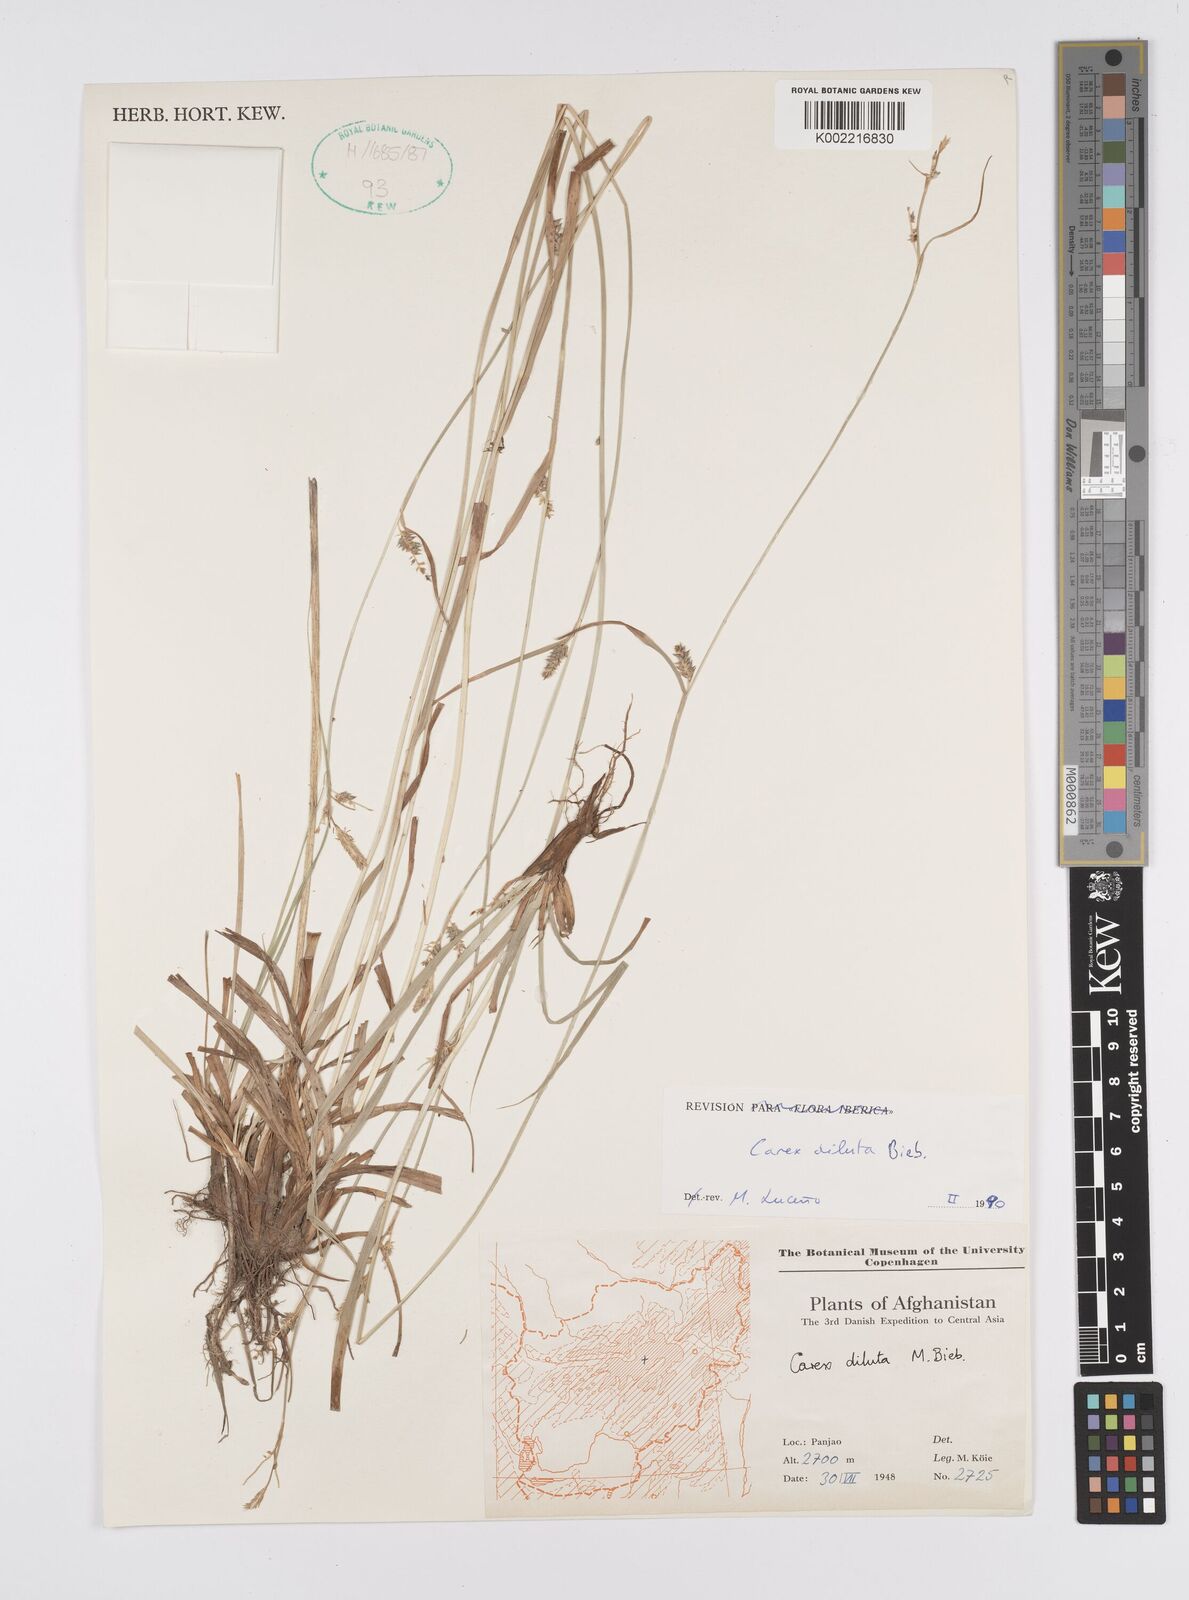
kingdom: Plantae
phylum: Tracheophyta
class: Liliopsida
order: Poales
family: Cyperaceae
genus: Carex
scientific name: Carex diluta
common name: Sedge
